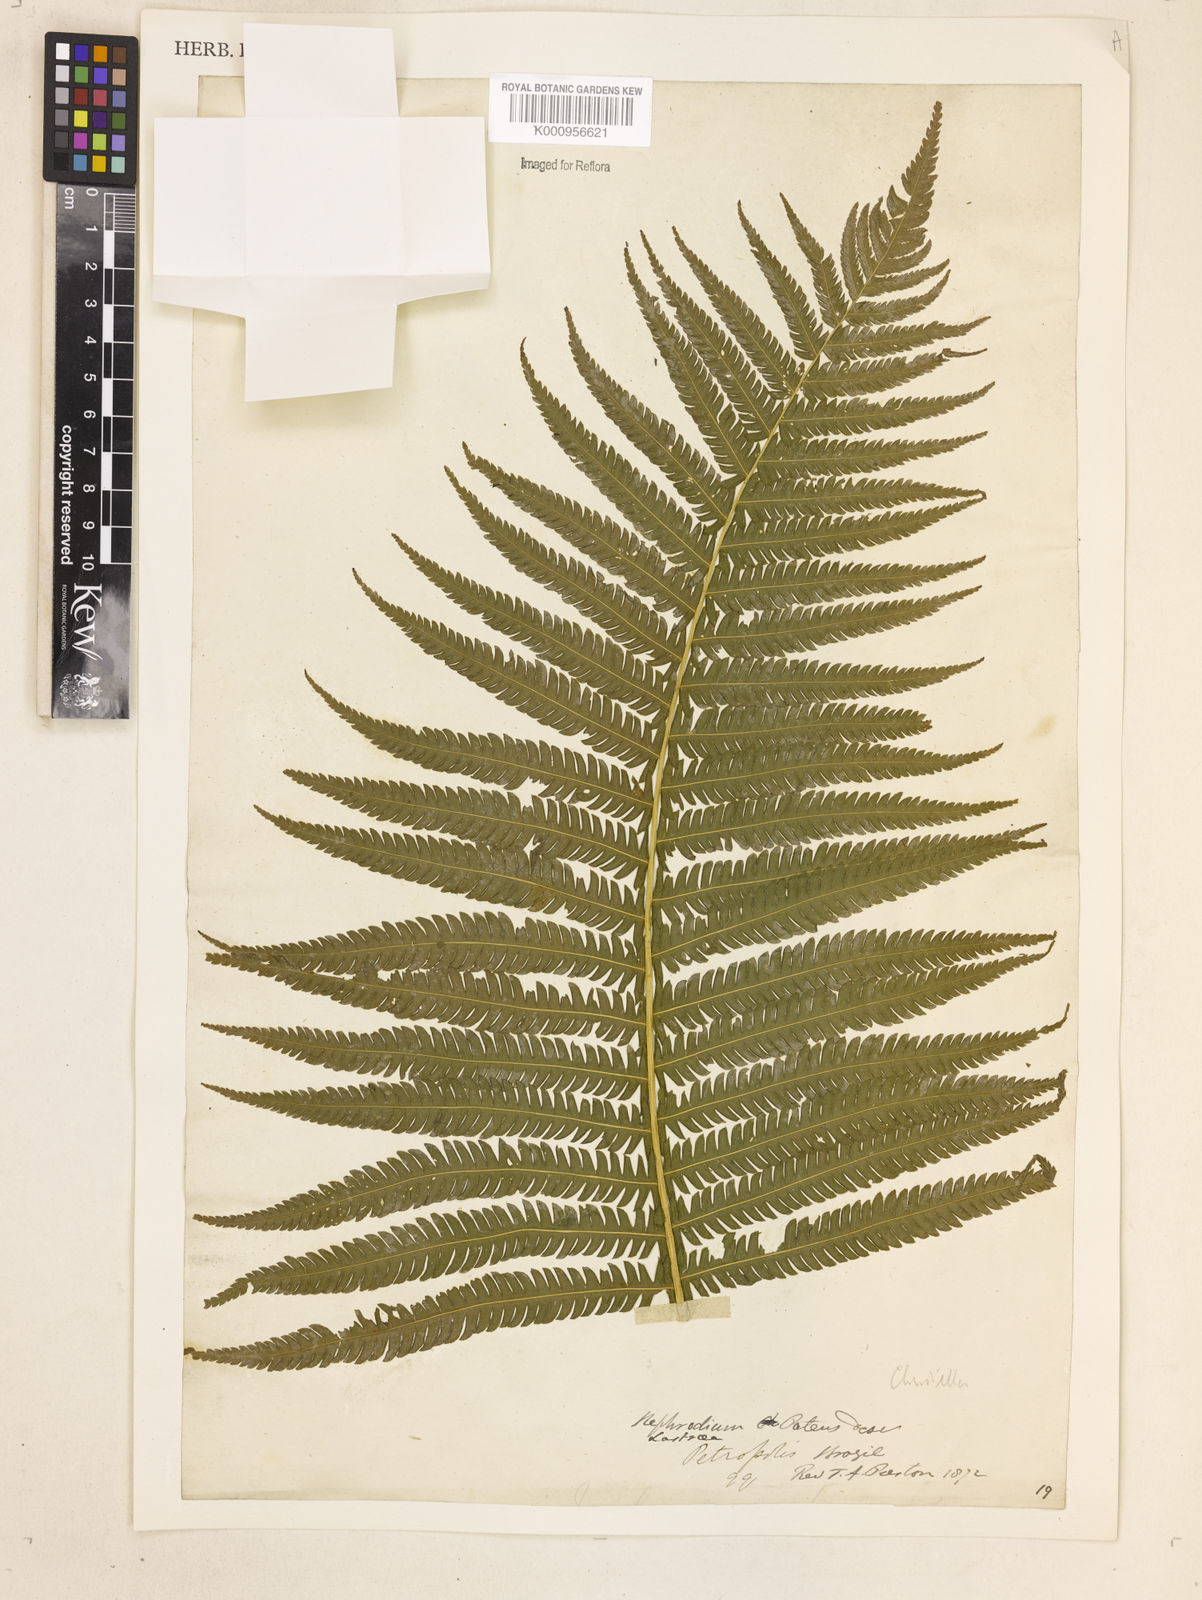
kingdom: Plantae
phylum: Tracheophyta
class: Polypodiopsida
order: Polypodiales
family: Thelypteridaceae
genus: Christella
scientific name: Christella
